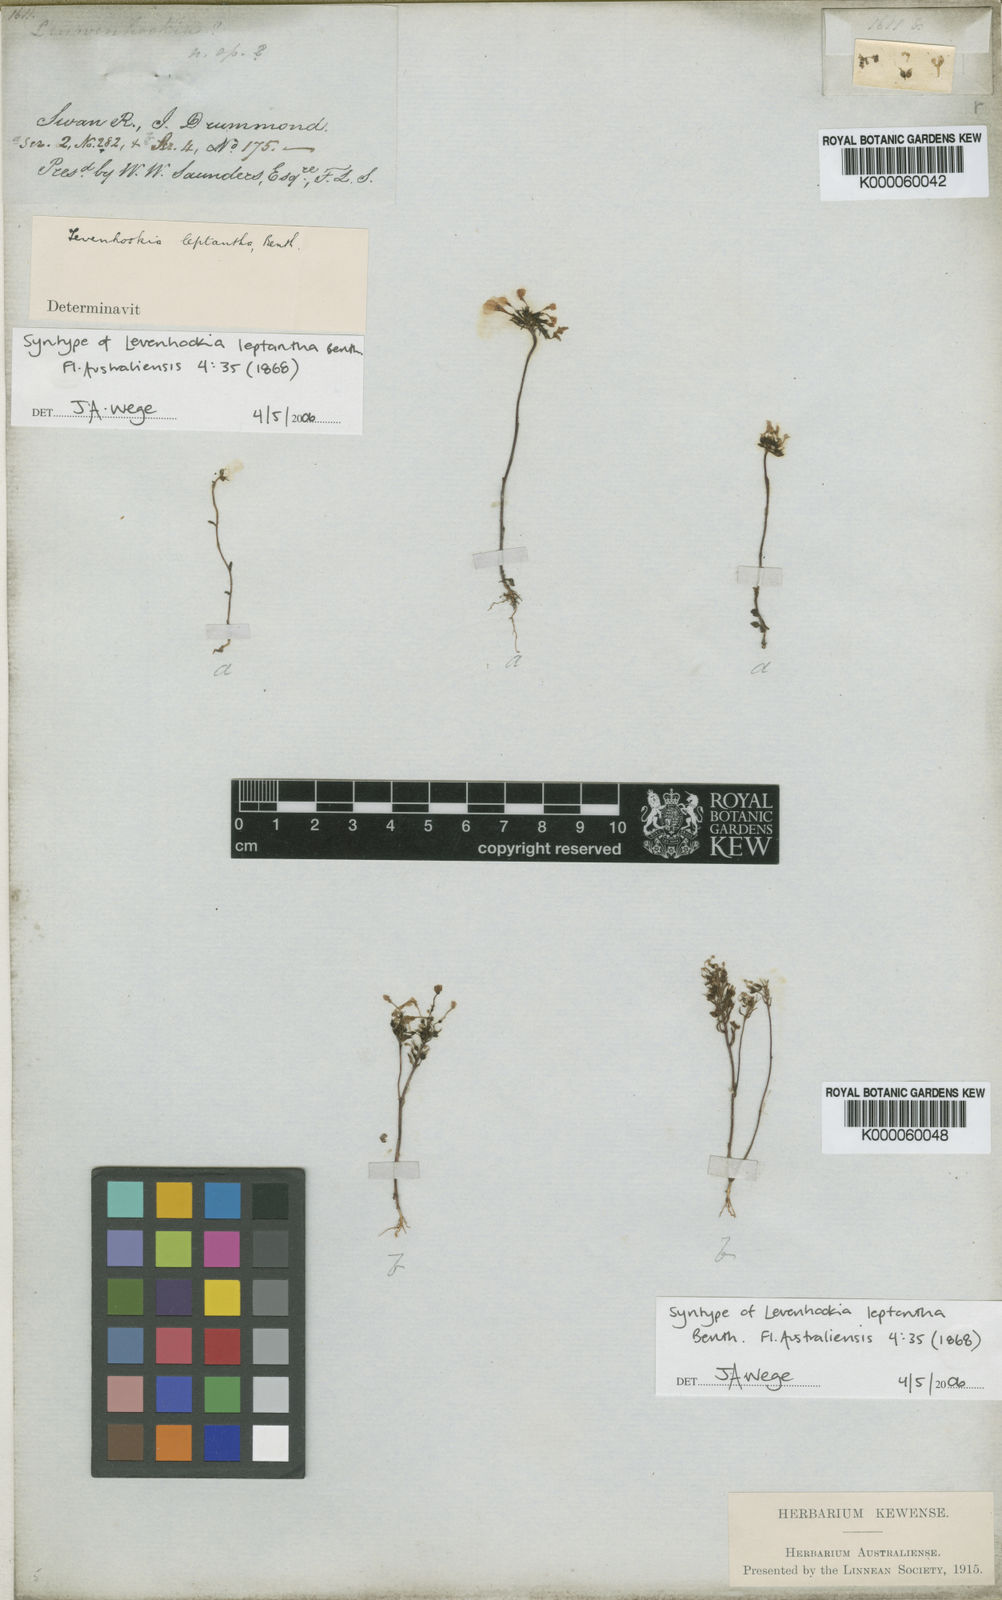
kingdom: Plantae
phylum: Tracheophyta
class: Magnoliopsida
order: Asterales
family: Stylidiaceae
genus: Levenhookia
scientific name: Levenhookia leptantha
